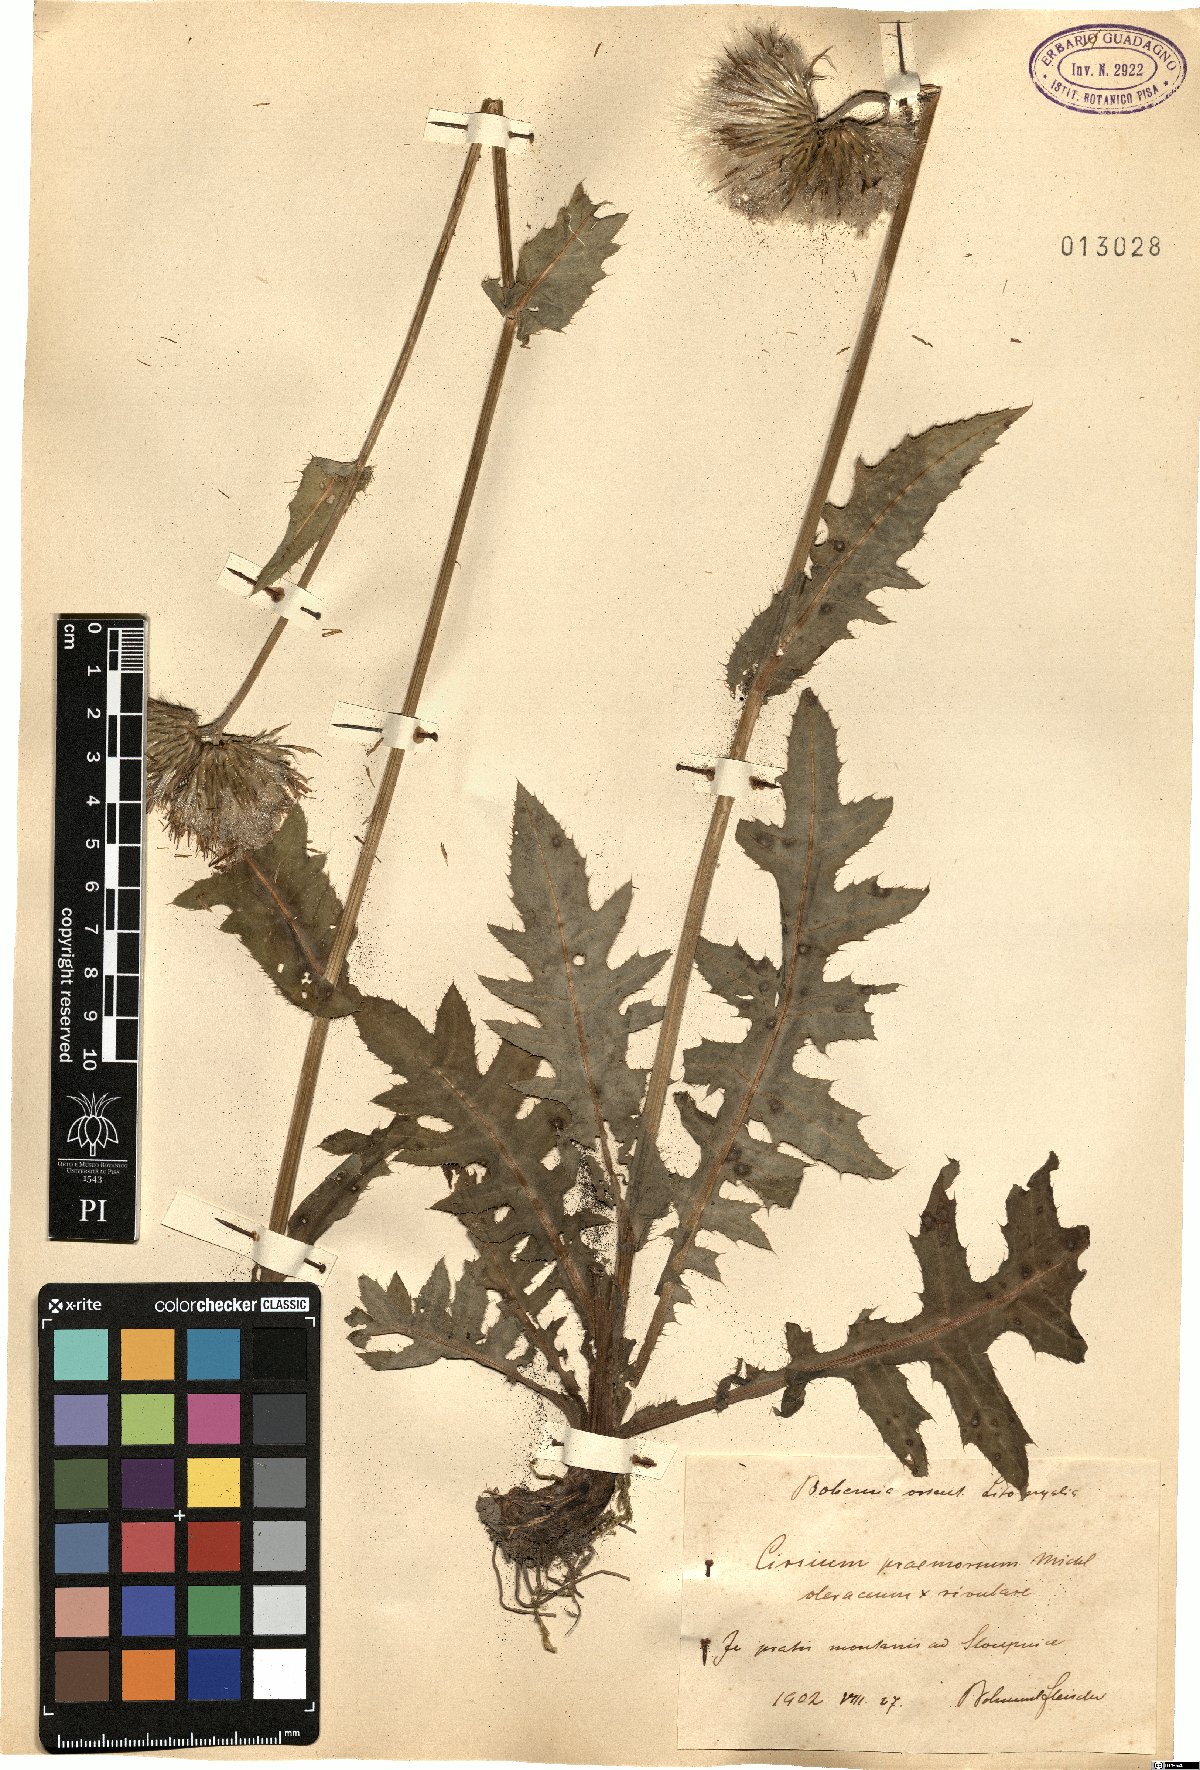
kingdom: Plantae
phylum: Tracheophyta
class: Magnoliopsida
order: Asterales
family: Asteraceae
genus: Cirsium
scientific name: Cirsium erucagineum
